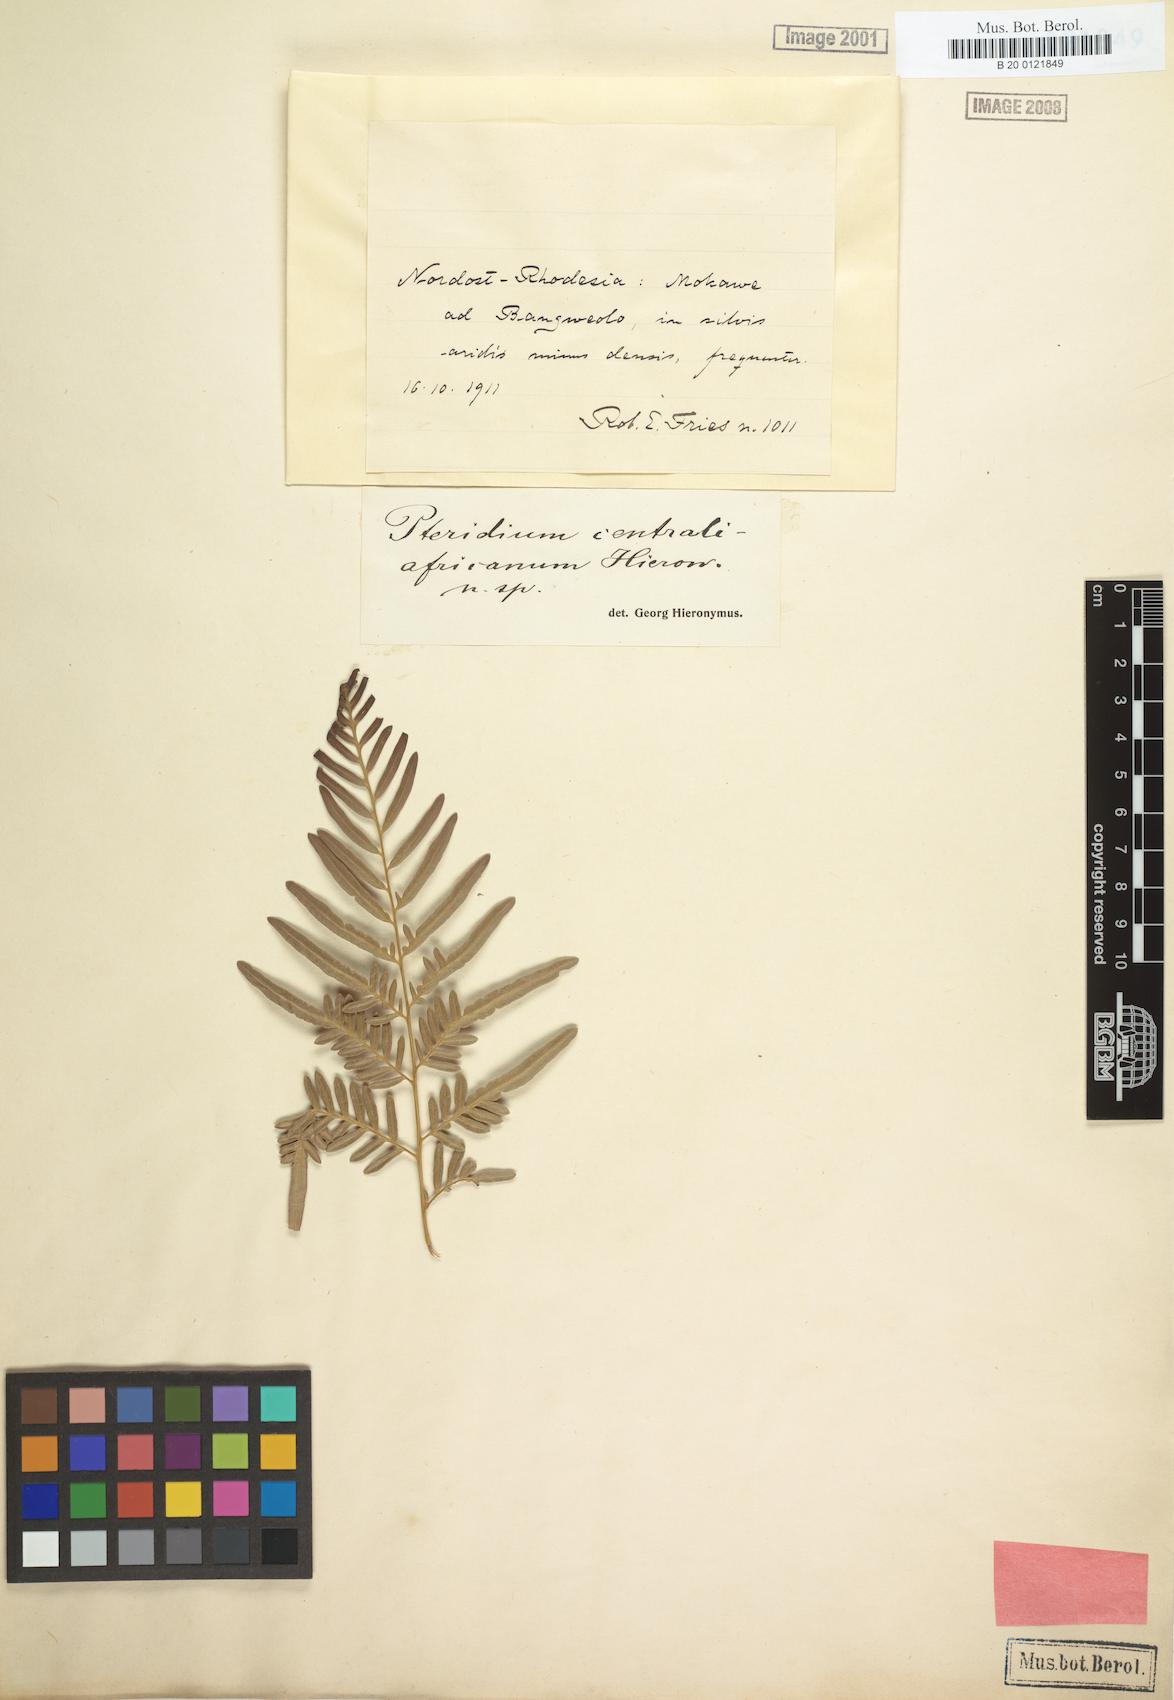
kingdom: Plantae
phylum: Tracheophyta
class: Polypodiopsida
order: Polypodiales
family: Dennstaedtiaceae
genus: Pteridium
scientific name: Pteridium aquilinum
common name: Bracken
